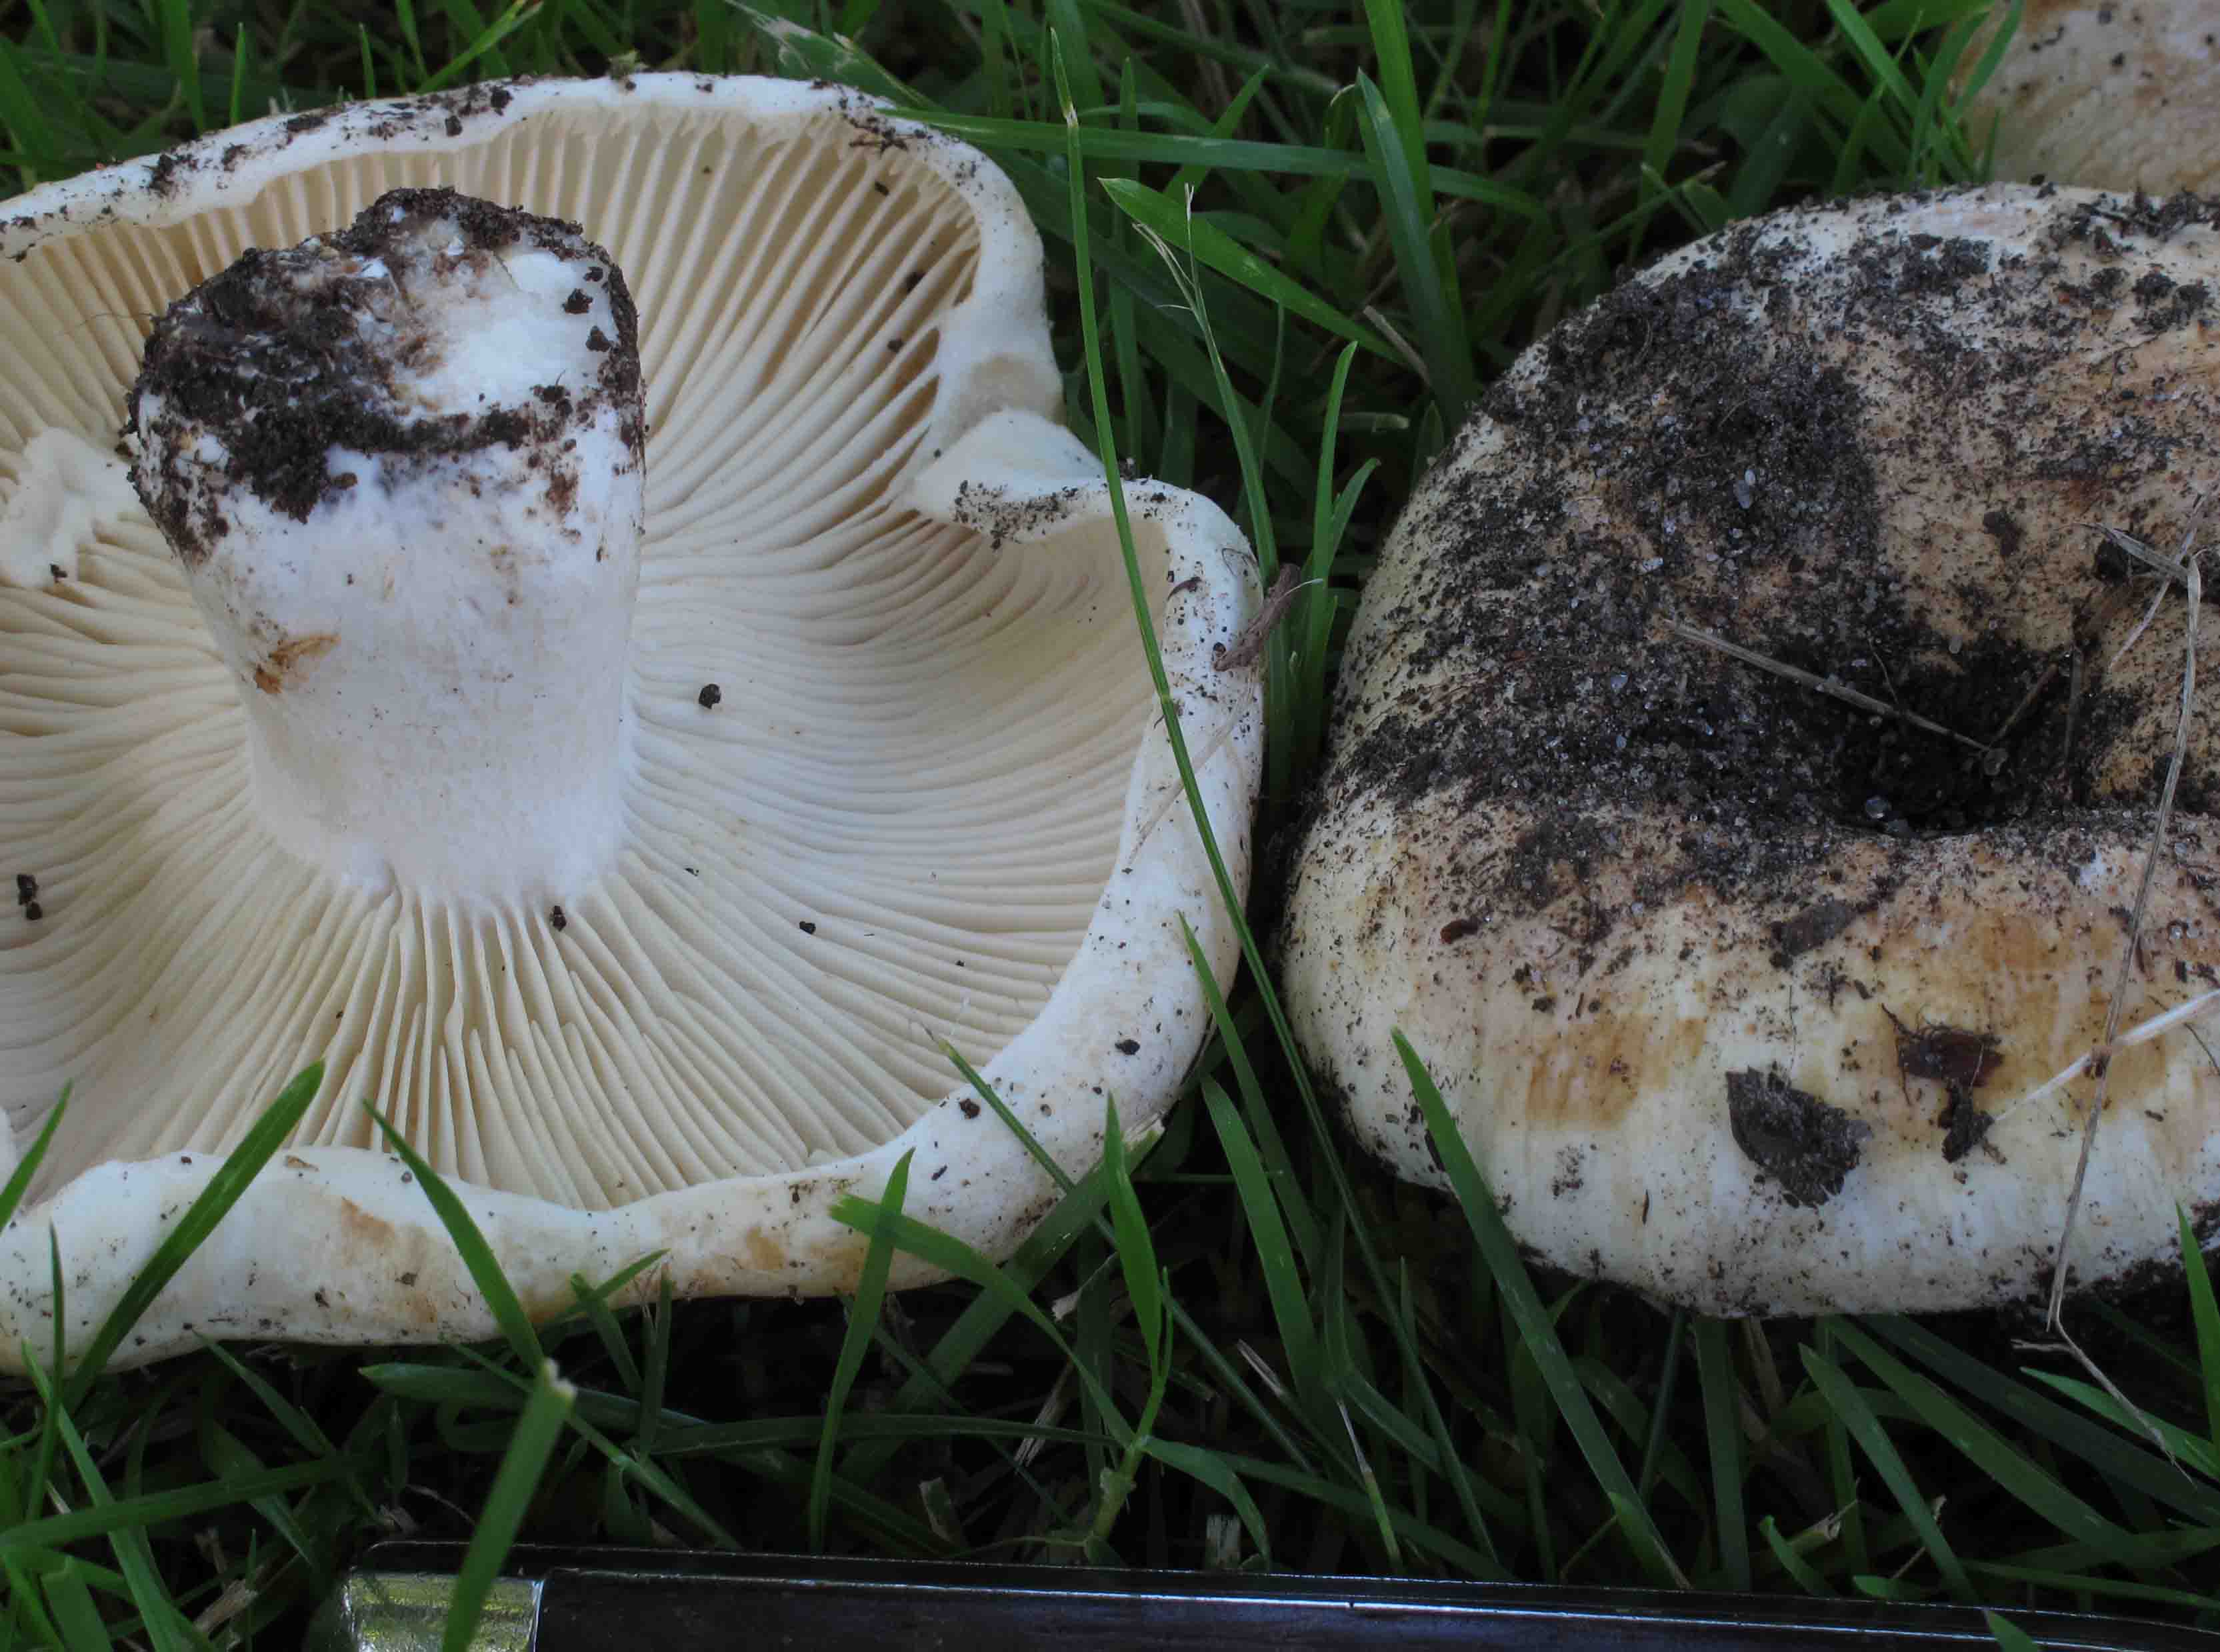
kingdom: Fungi
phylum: Basidiomycota
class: Agaricomycetes
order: Russulales
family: Russulaceae
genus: Russula
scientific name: Russula delica
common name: almindelig tragt-skørhat
